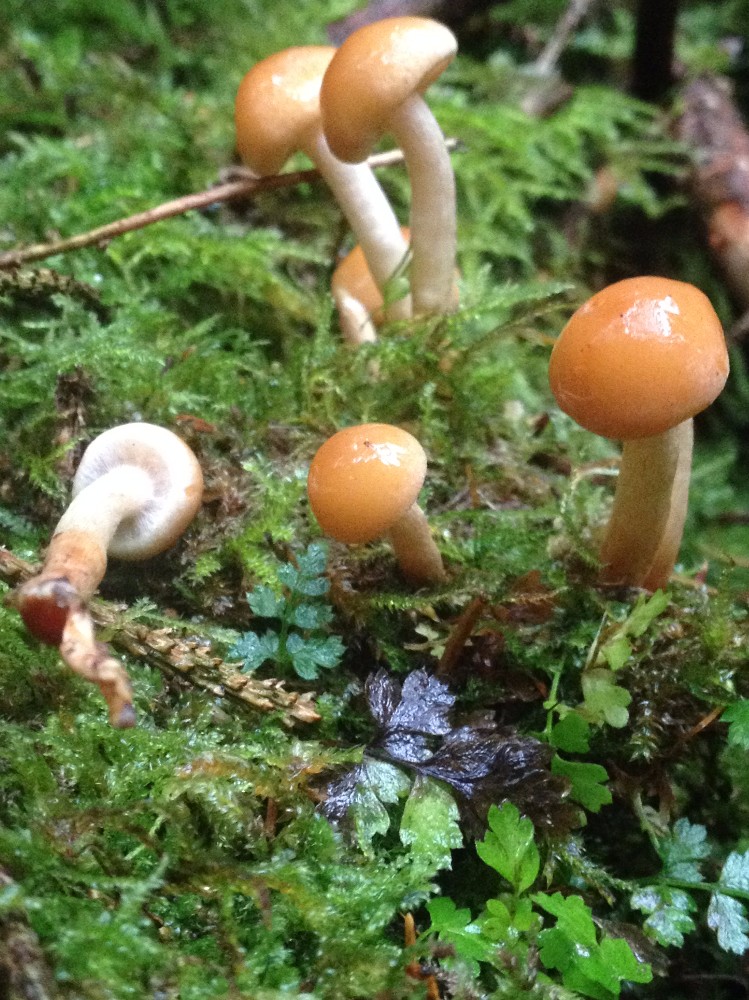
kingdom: Fungi
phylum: Basidiomycota
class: Agaricomycetes
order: Agaricales
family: Strophariaceae
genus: Hypholoma
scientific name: Hypholoma capnoides
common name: gran-svovlhat
